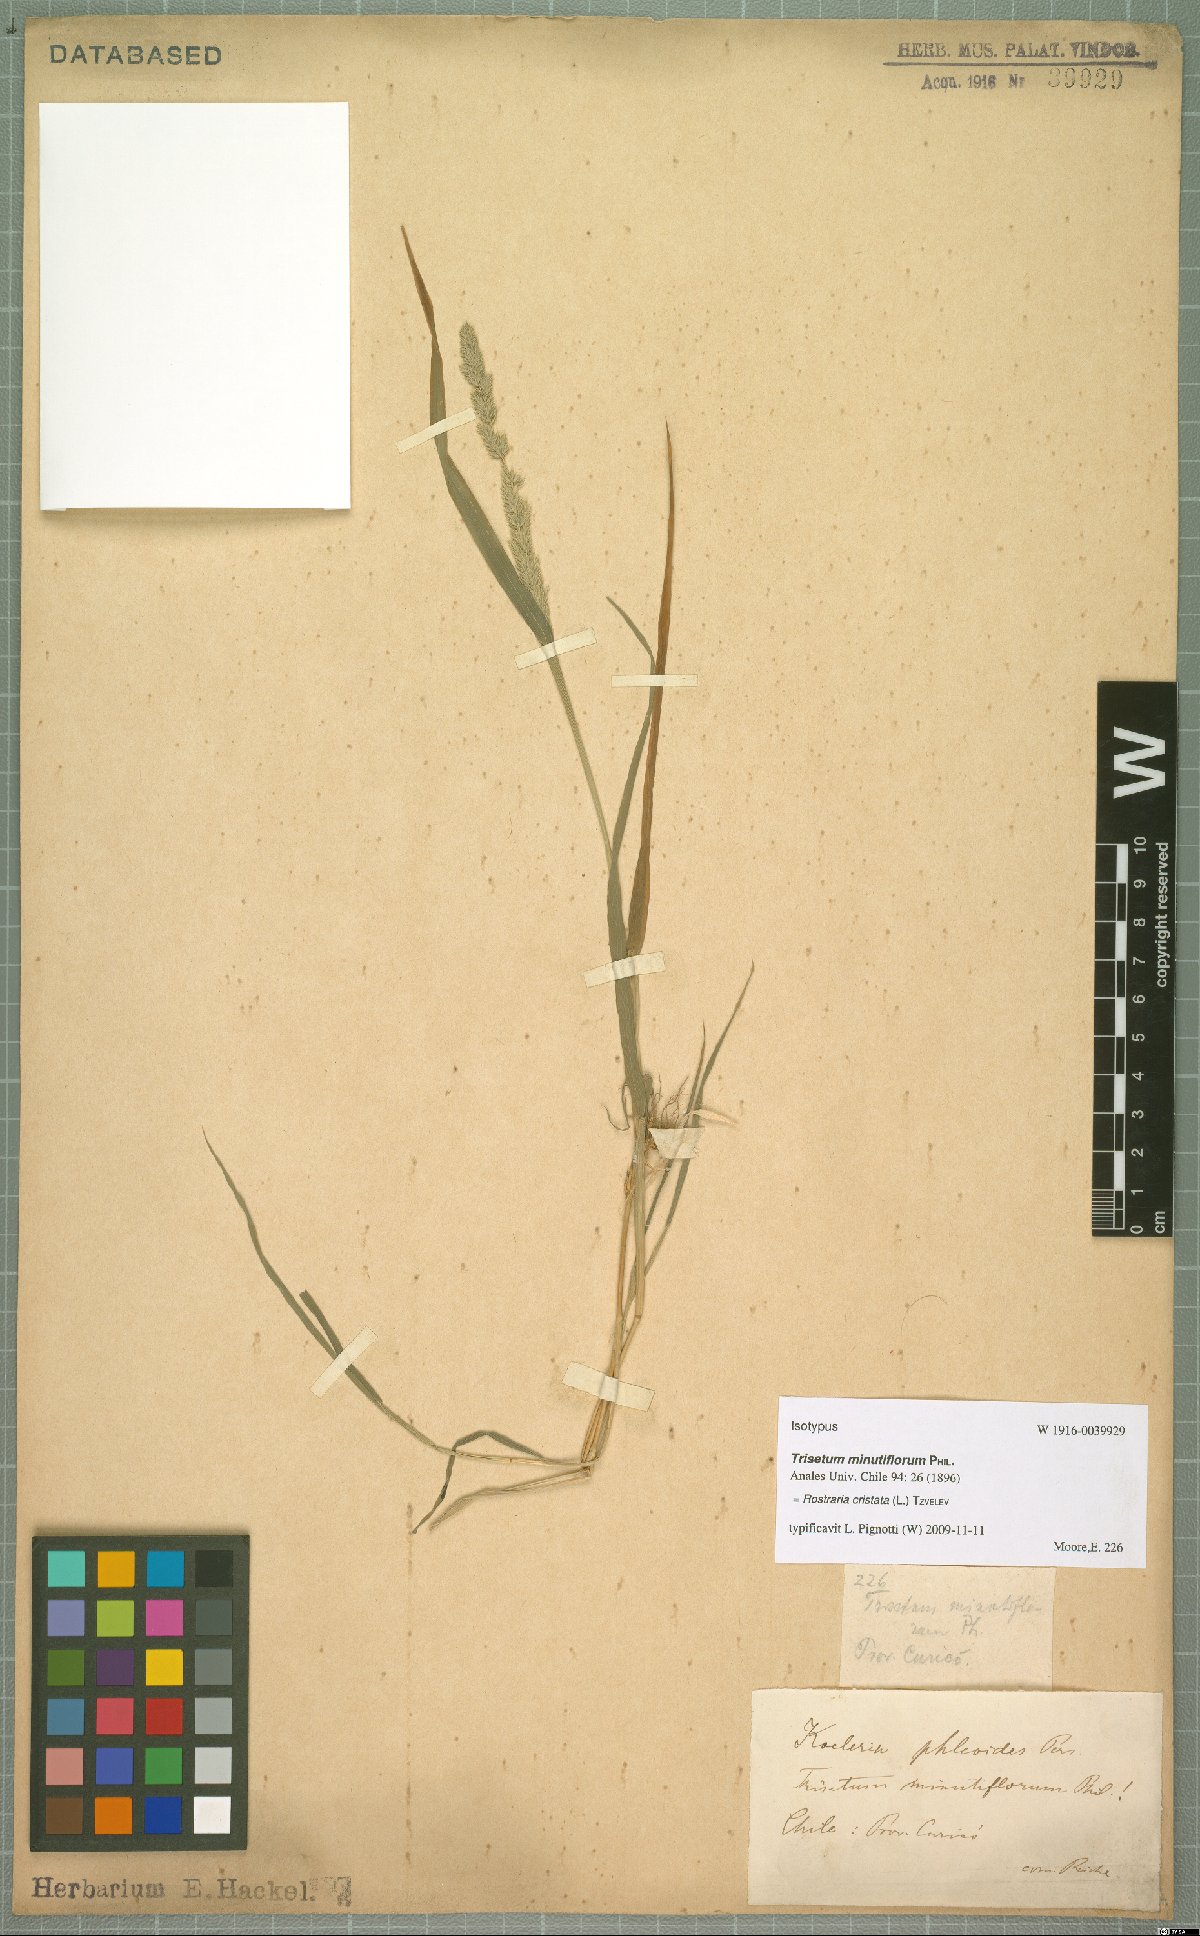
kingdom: Plantae
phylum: Tracheophyta
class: Liliopsida
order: Poales
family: Poaceae
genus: Rostraria
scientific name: Rostraria cristata
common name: Mediterranean hair-grass
